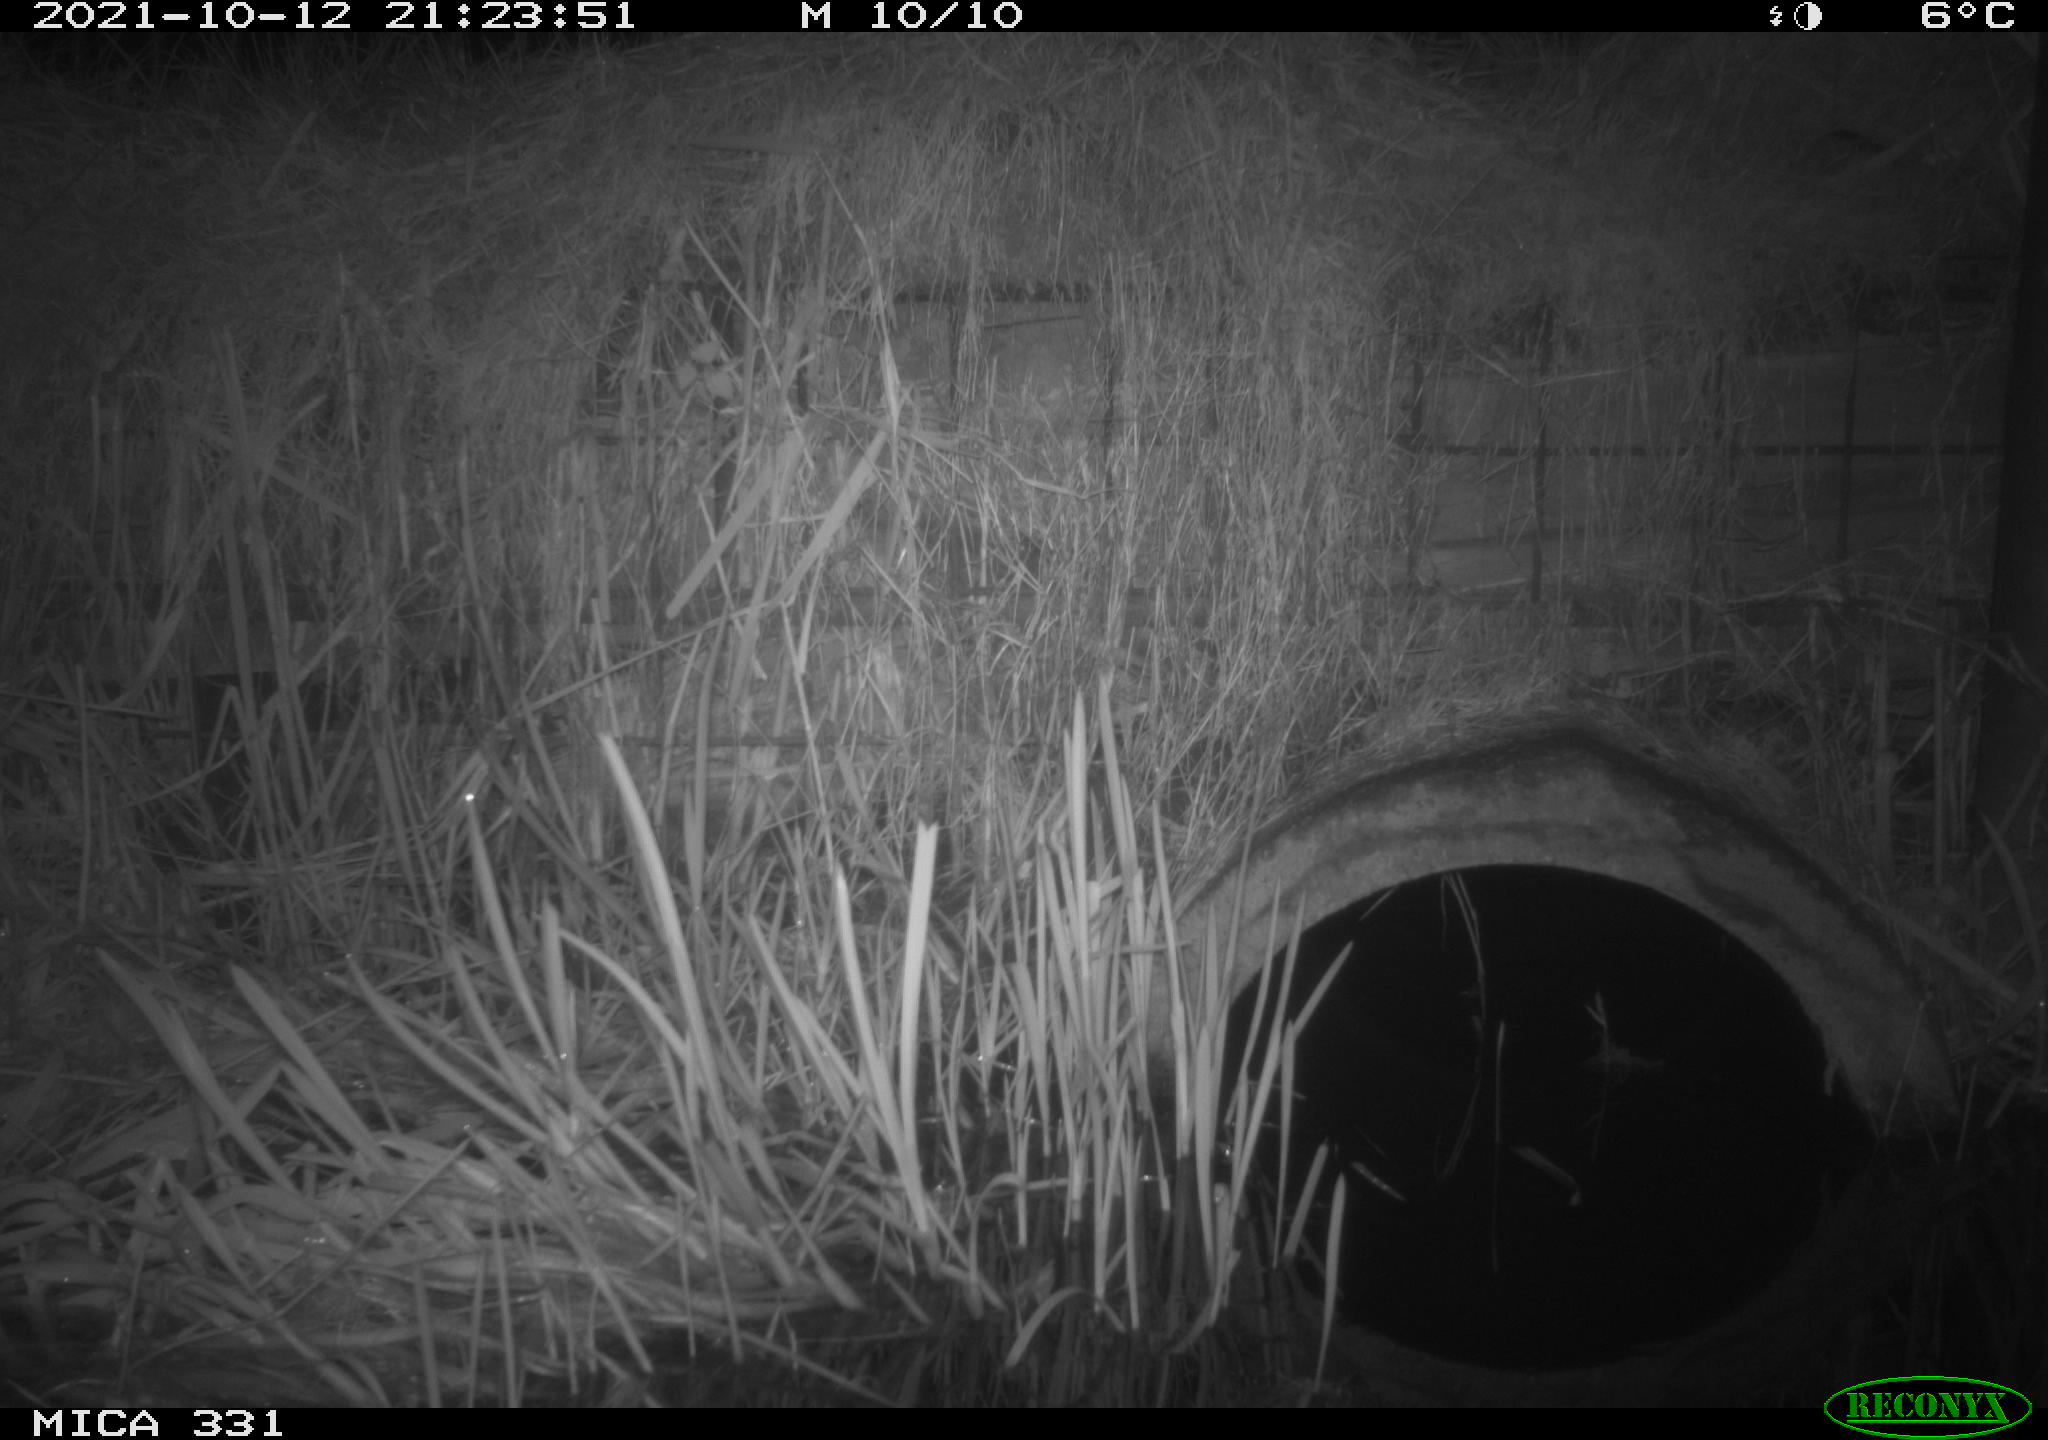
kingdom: Animalia
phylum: Chordata
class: Mammalia
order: Rodentia
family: Muridae
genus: Rattus
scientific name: Rattus norvegicus
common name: Brown rat
